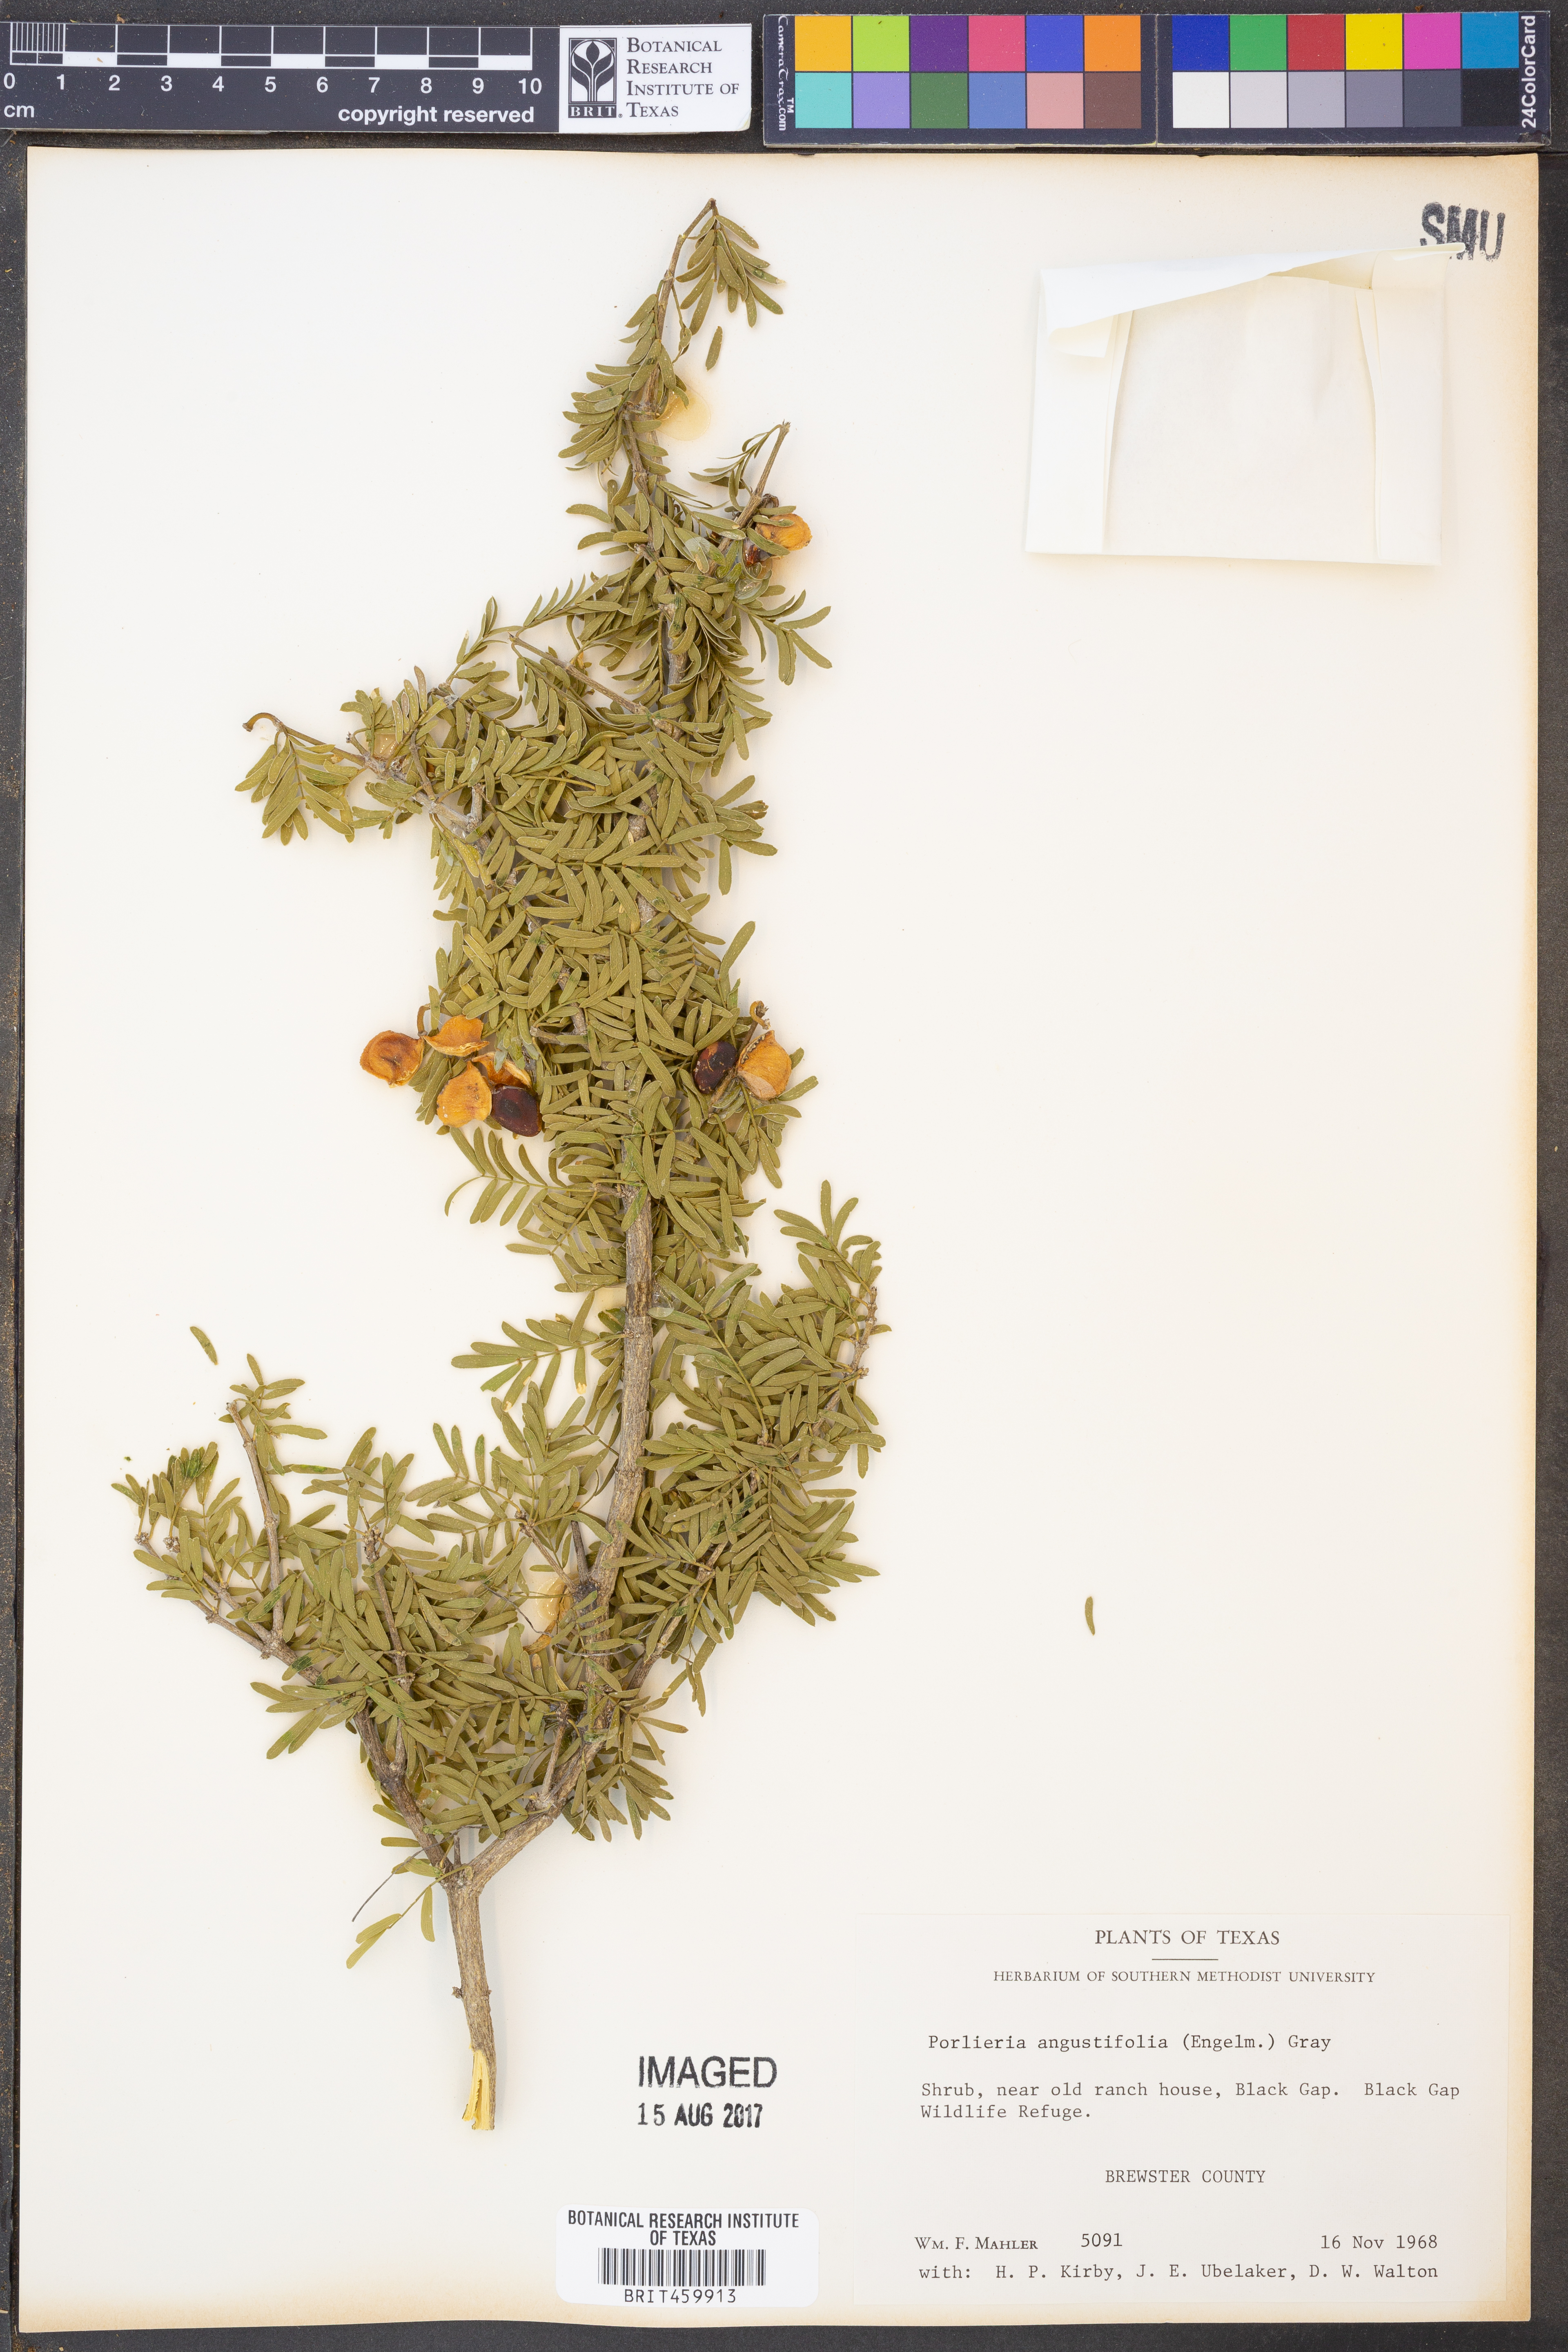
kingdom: Plantae
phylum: Tracheophyta
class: Magnoliopsida
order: Zygophyllales
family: Zygophyllaceae
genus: Porlieria
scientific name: Porlieria angustifolia
